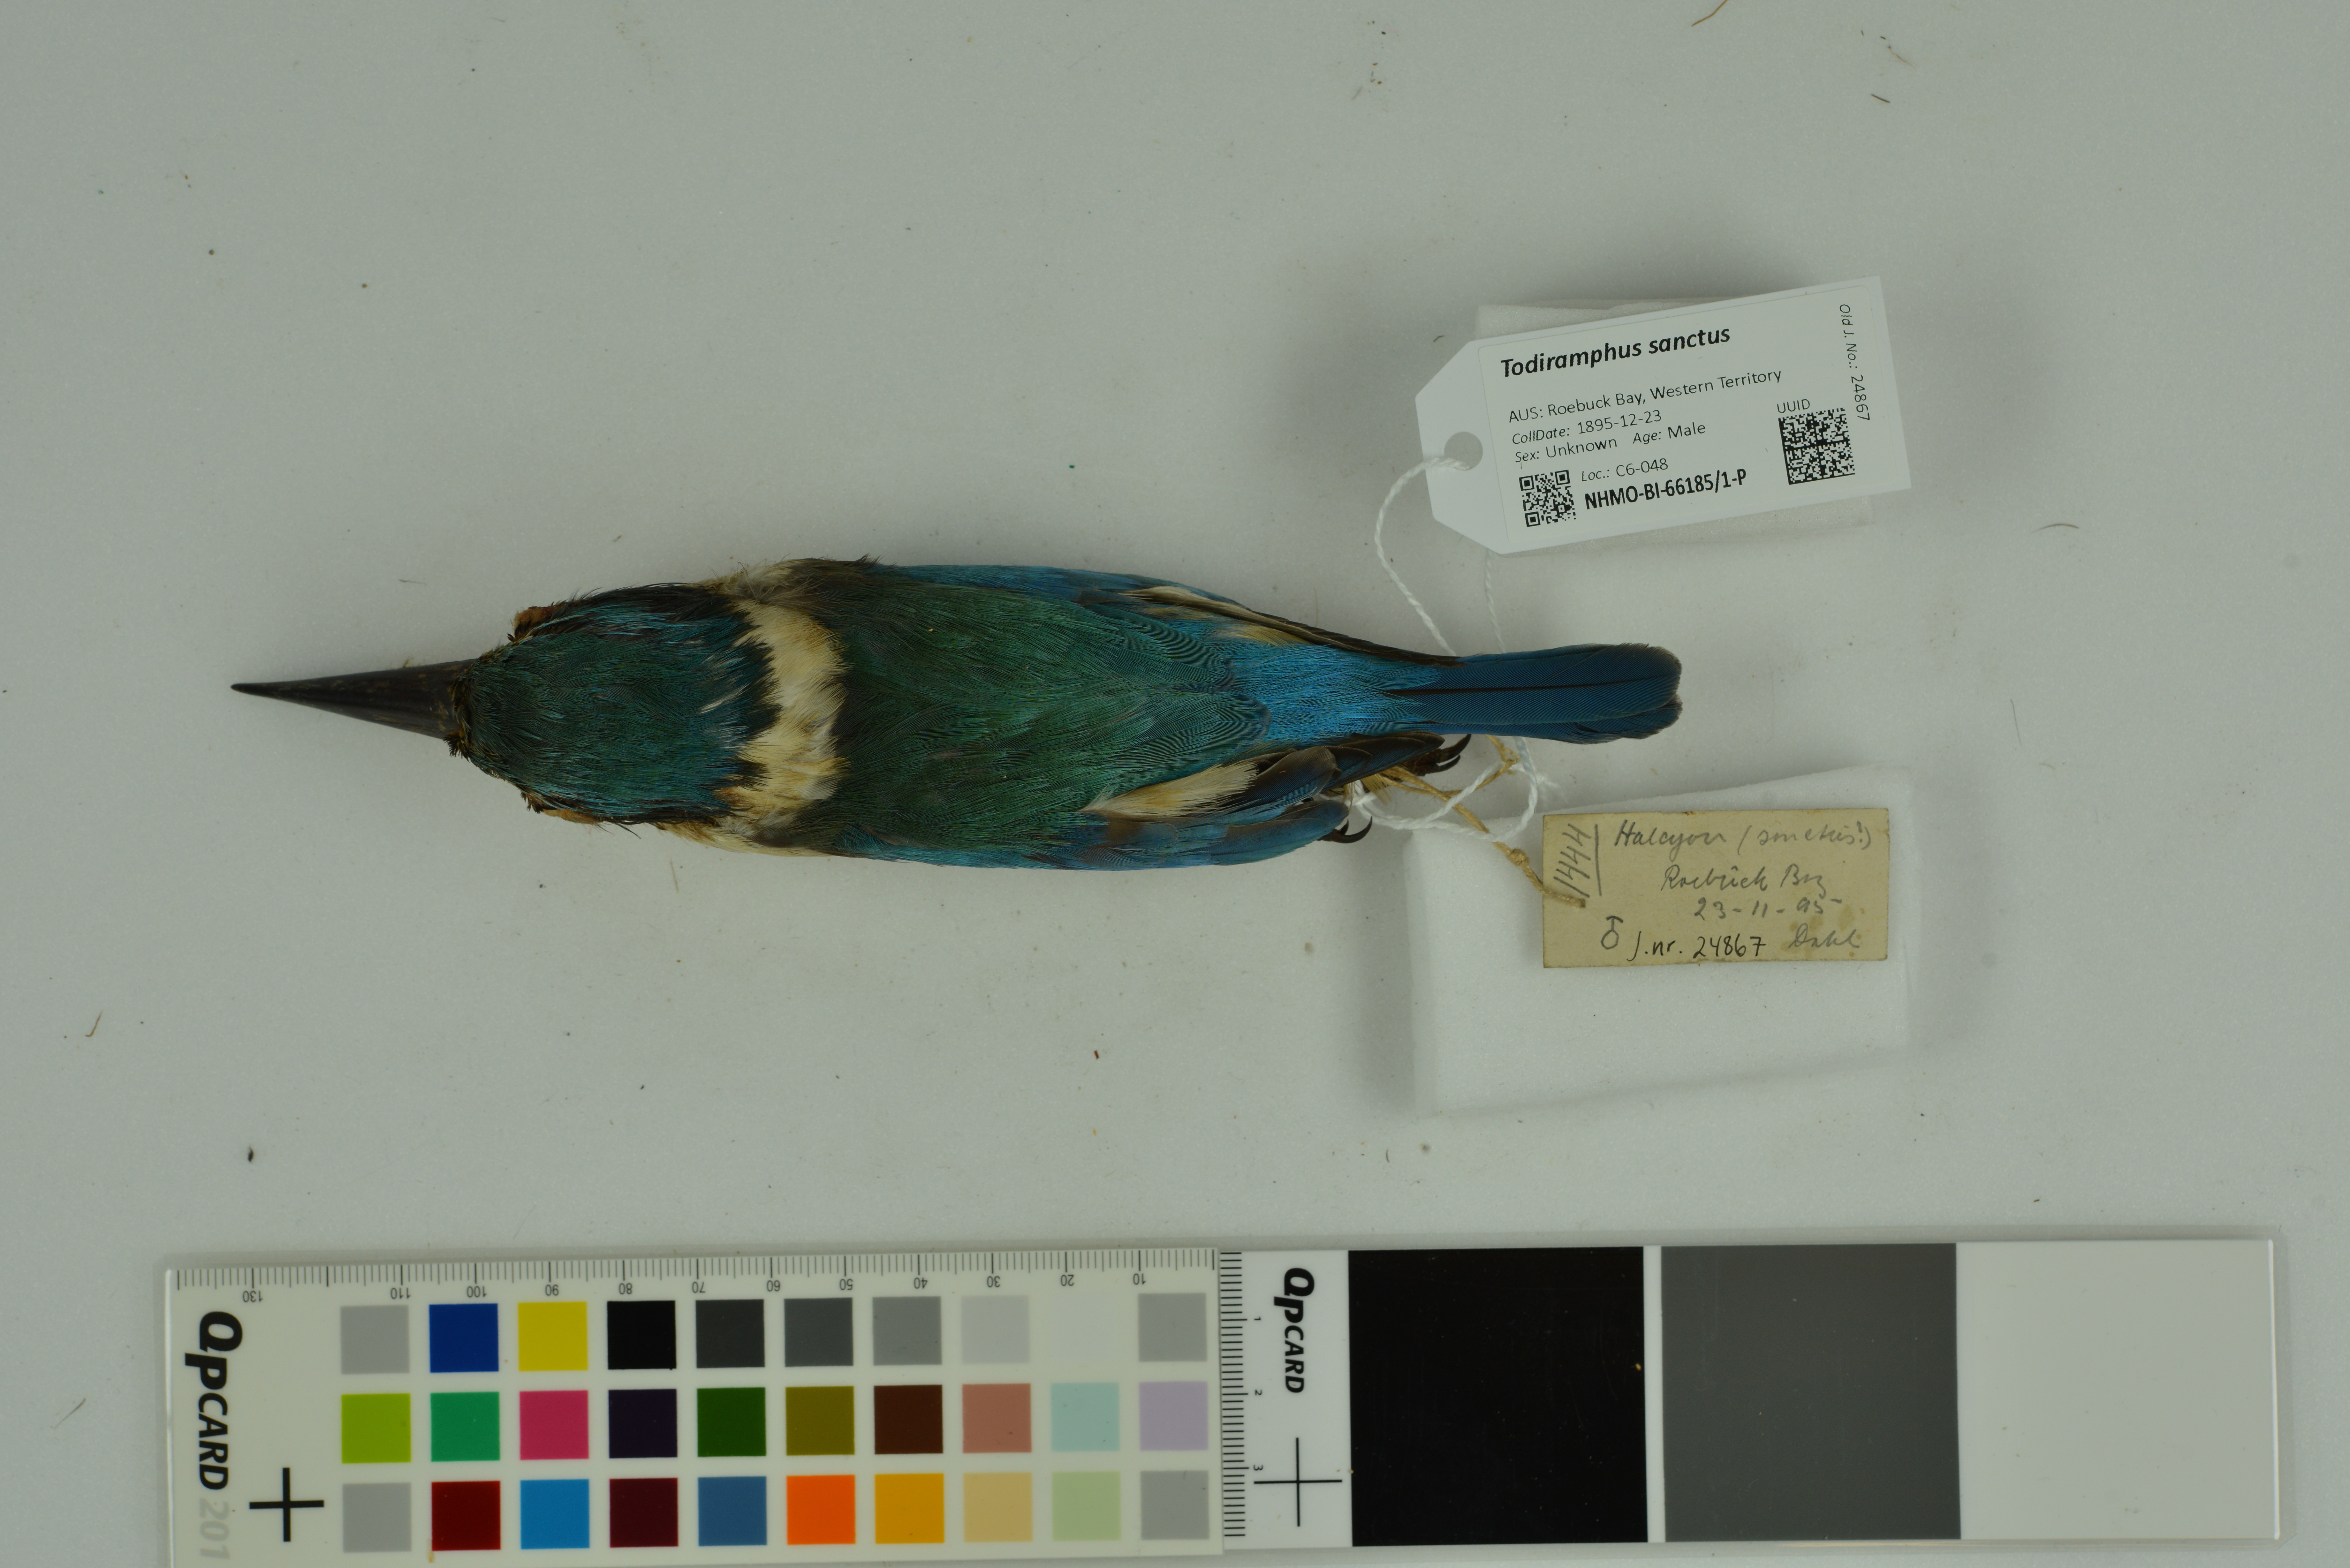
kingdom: Animalia
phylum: Chordata
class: Aves
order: Coraciiformes
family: Alcedinidae
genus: Todiramphus
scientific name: Todiramphus sanctus
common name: Sacred kingfisher
